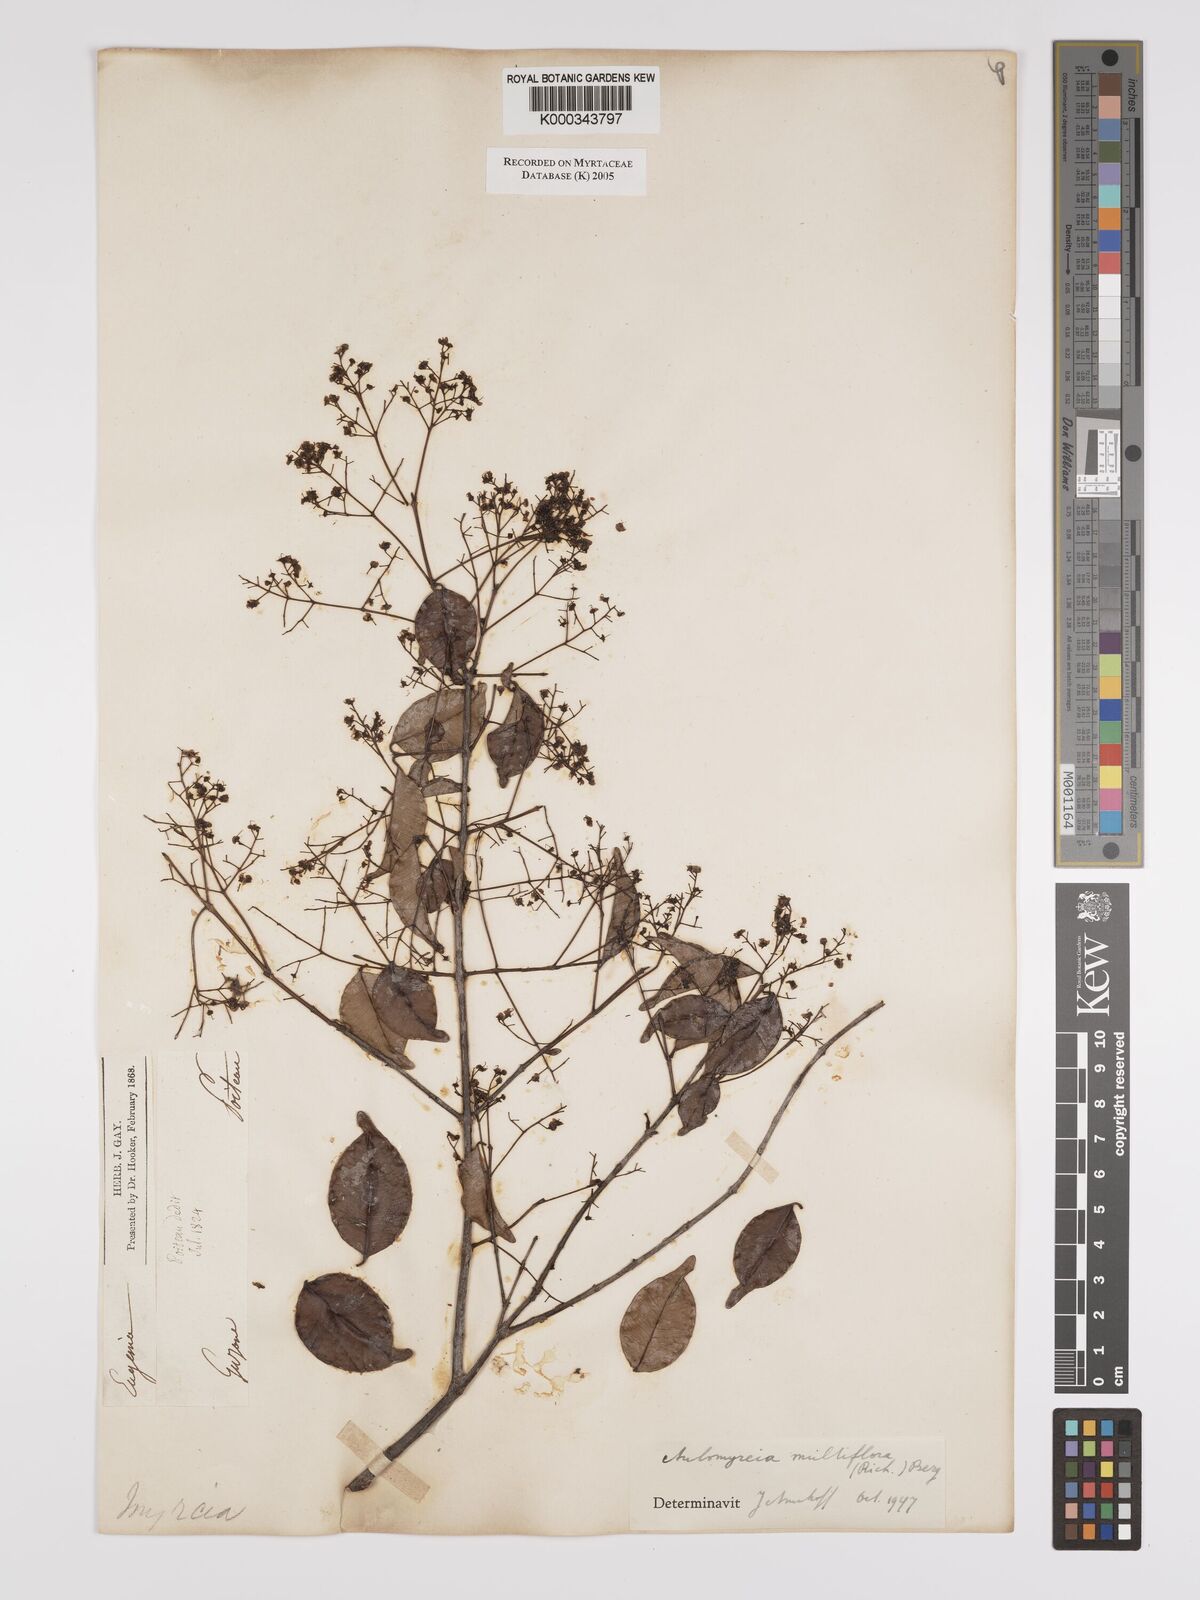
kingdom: Plantae
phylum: Tracheophyta
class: Magnoliopsida
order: Myrtales
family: Myrtaceae
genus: Myrcia
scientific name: Myrcia multiflora
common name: Pedra hume
